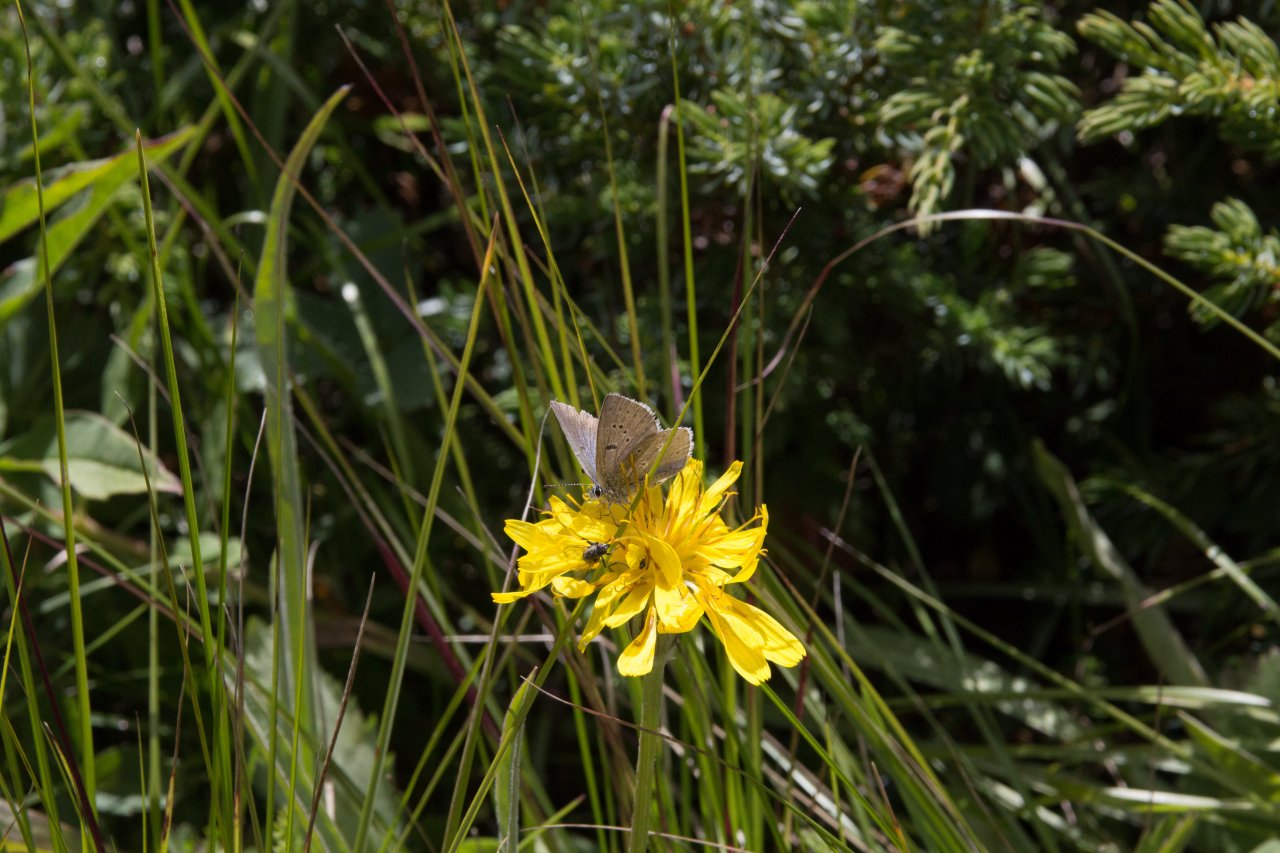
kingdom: Animalia
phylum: Arthropoda
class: Insecta
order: Lepidoptera
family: Lycaenidae
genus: Agriades
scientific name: Agriades glandon
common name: Arctic Blue
